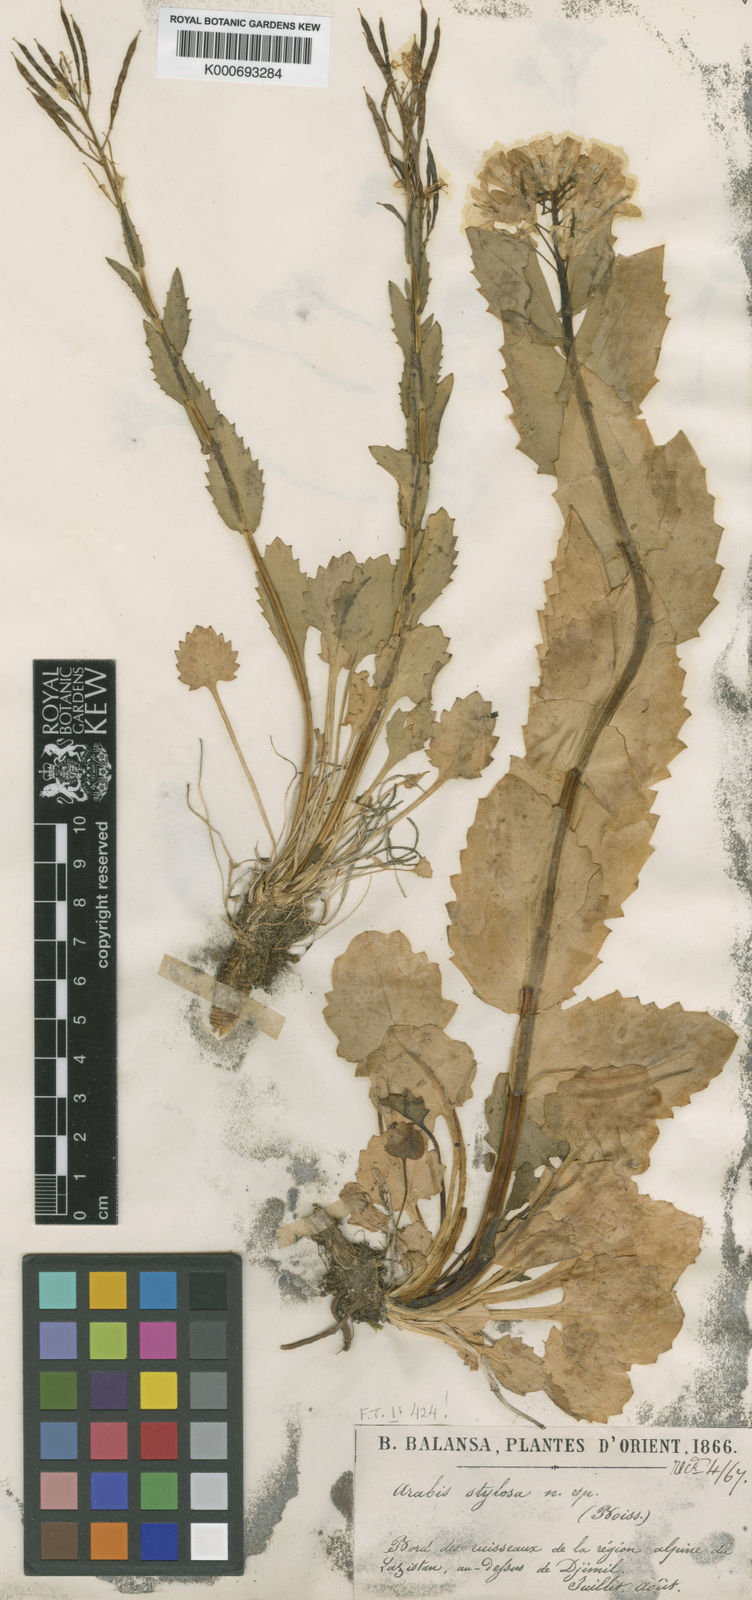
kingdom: Plantae
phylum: Tracheophyta
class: Magnoliopsida
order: Brassicales
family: Brassicaceae
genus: Arabis
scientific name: Arabis brachycarpa
